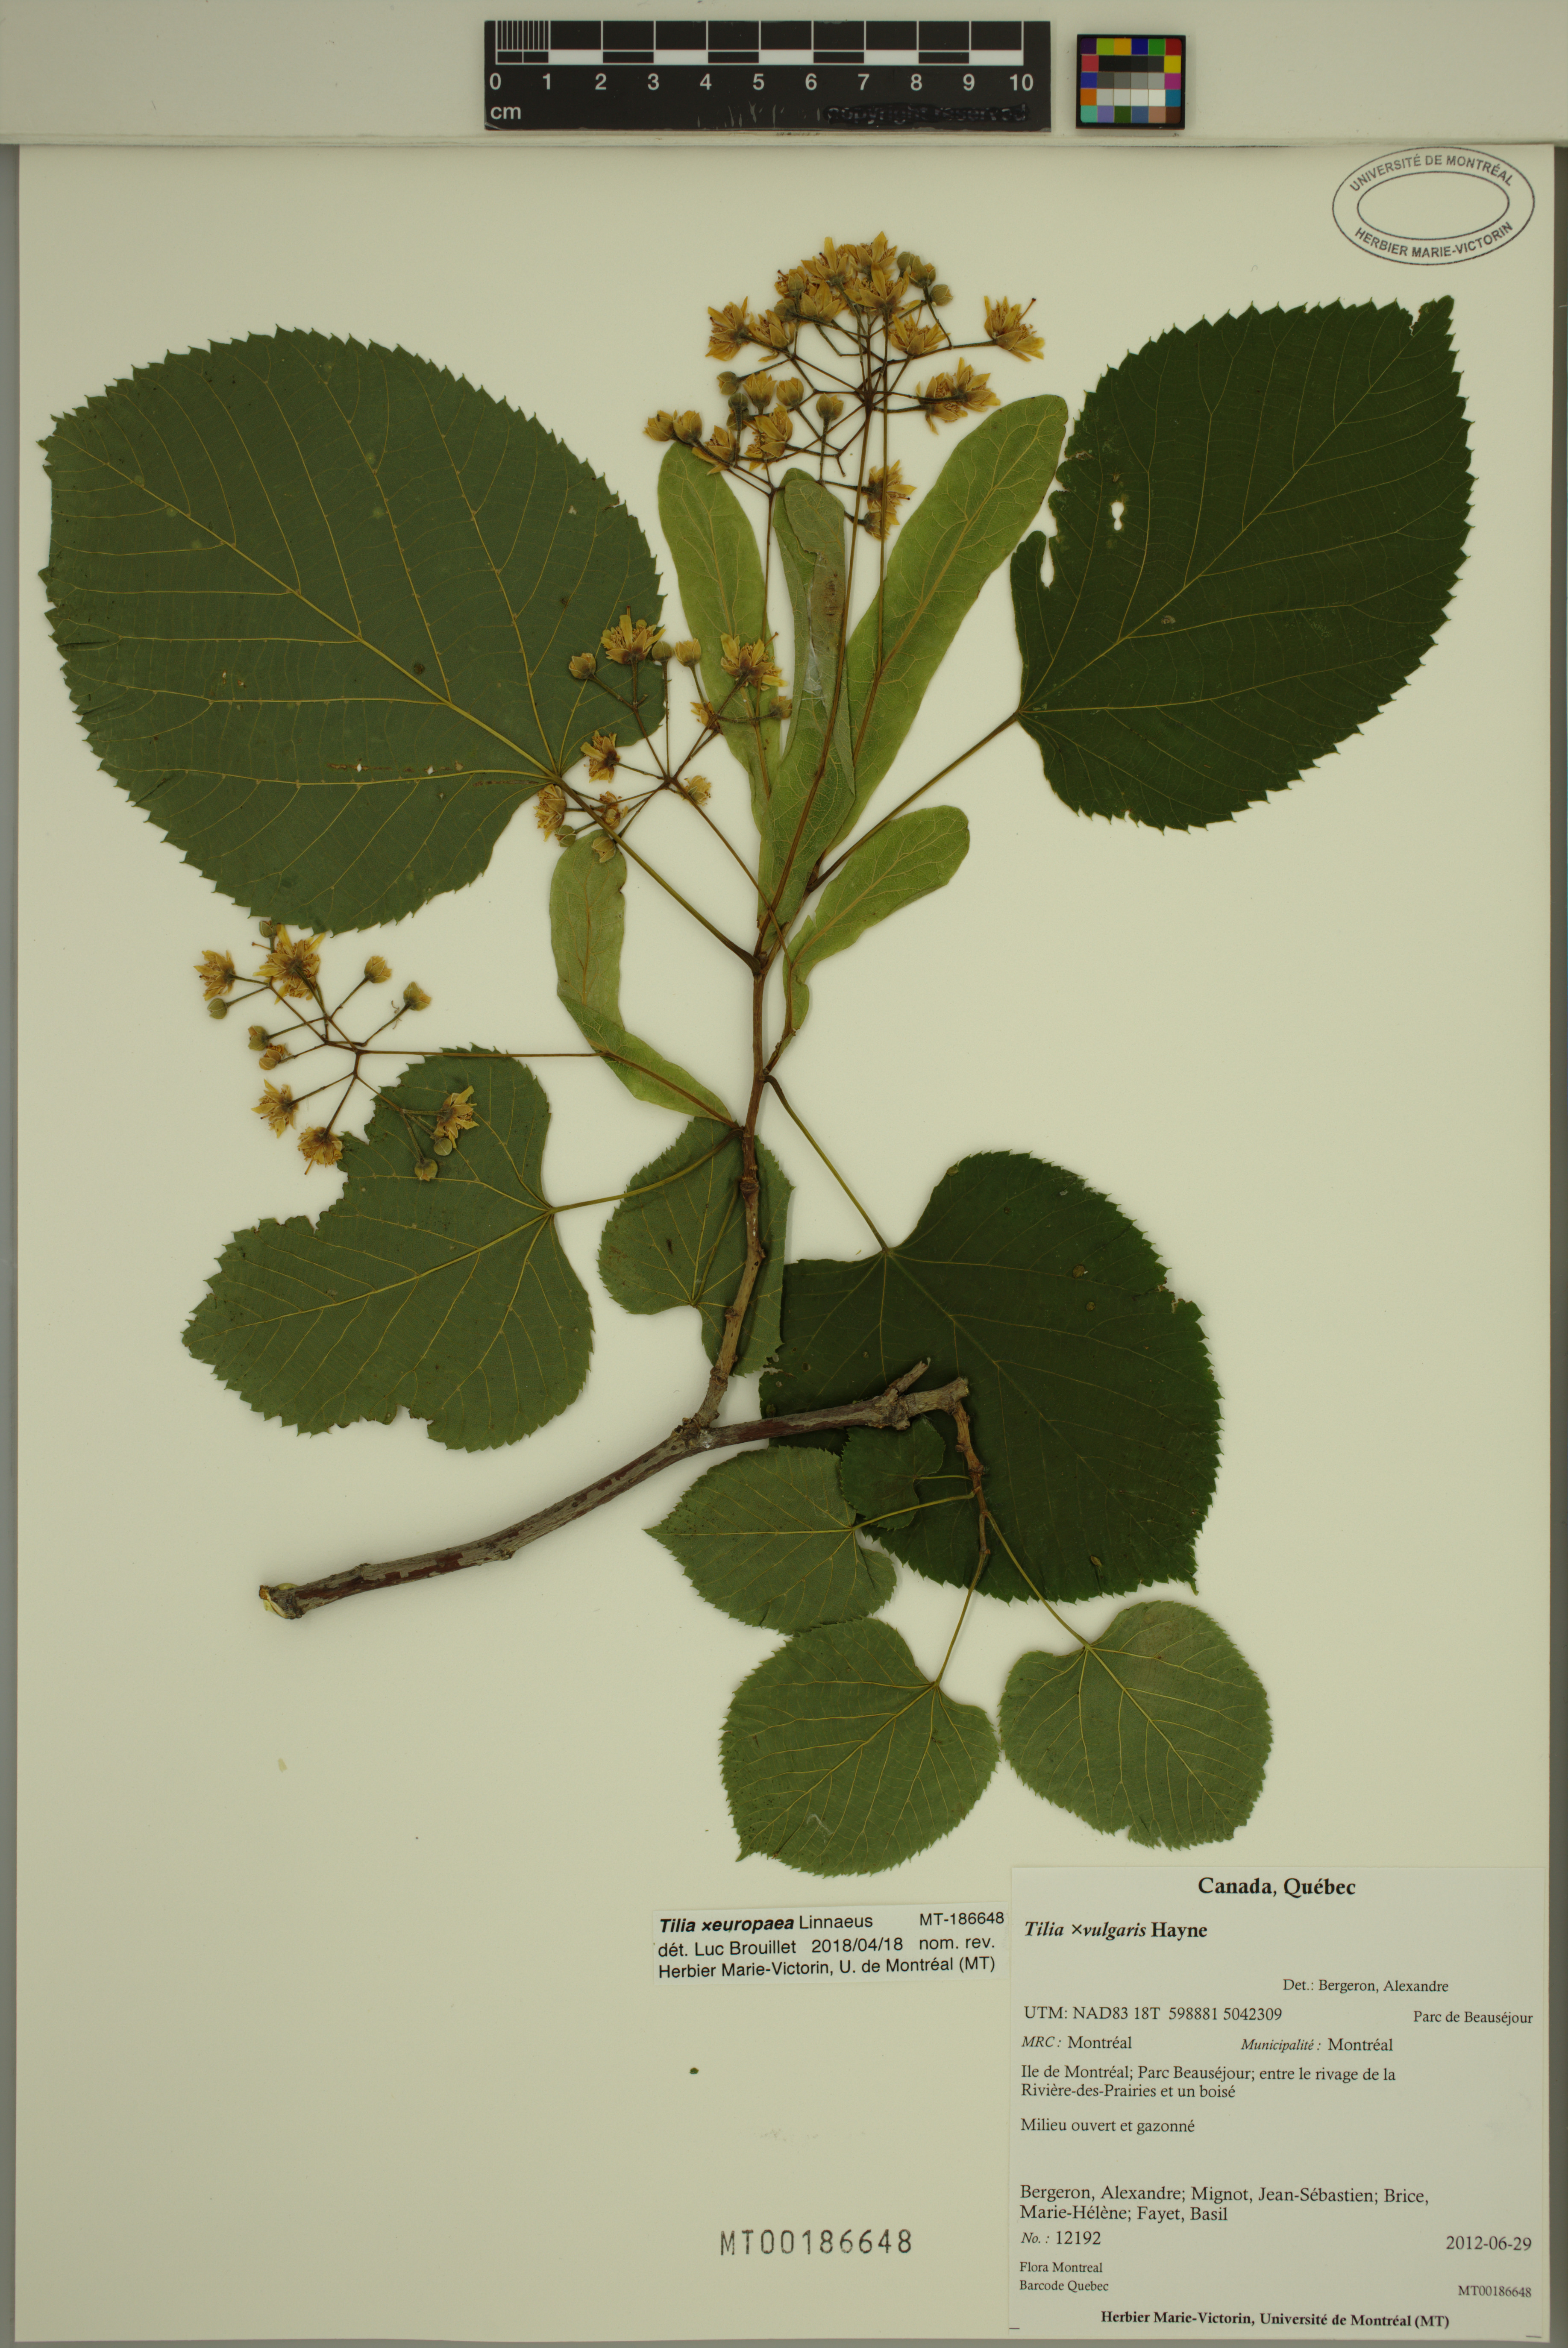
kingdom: Plantae
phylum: Tracheophyta
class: Magnoliopsida
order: Malvales
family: Malvaceae
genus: Tilia
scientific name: Tilia europaea
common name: European linden
